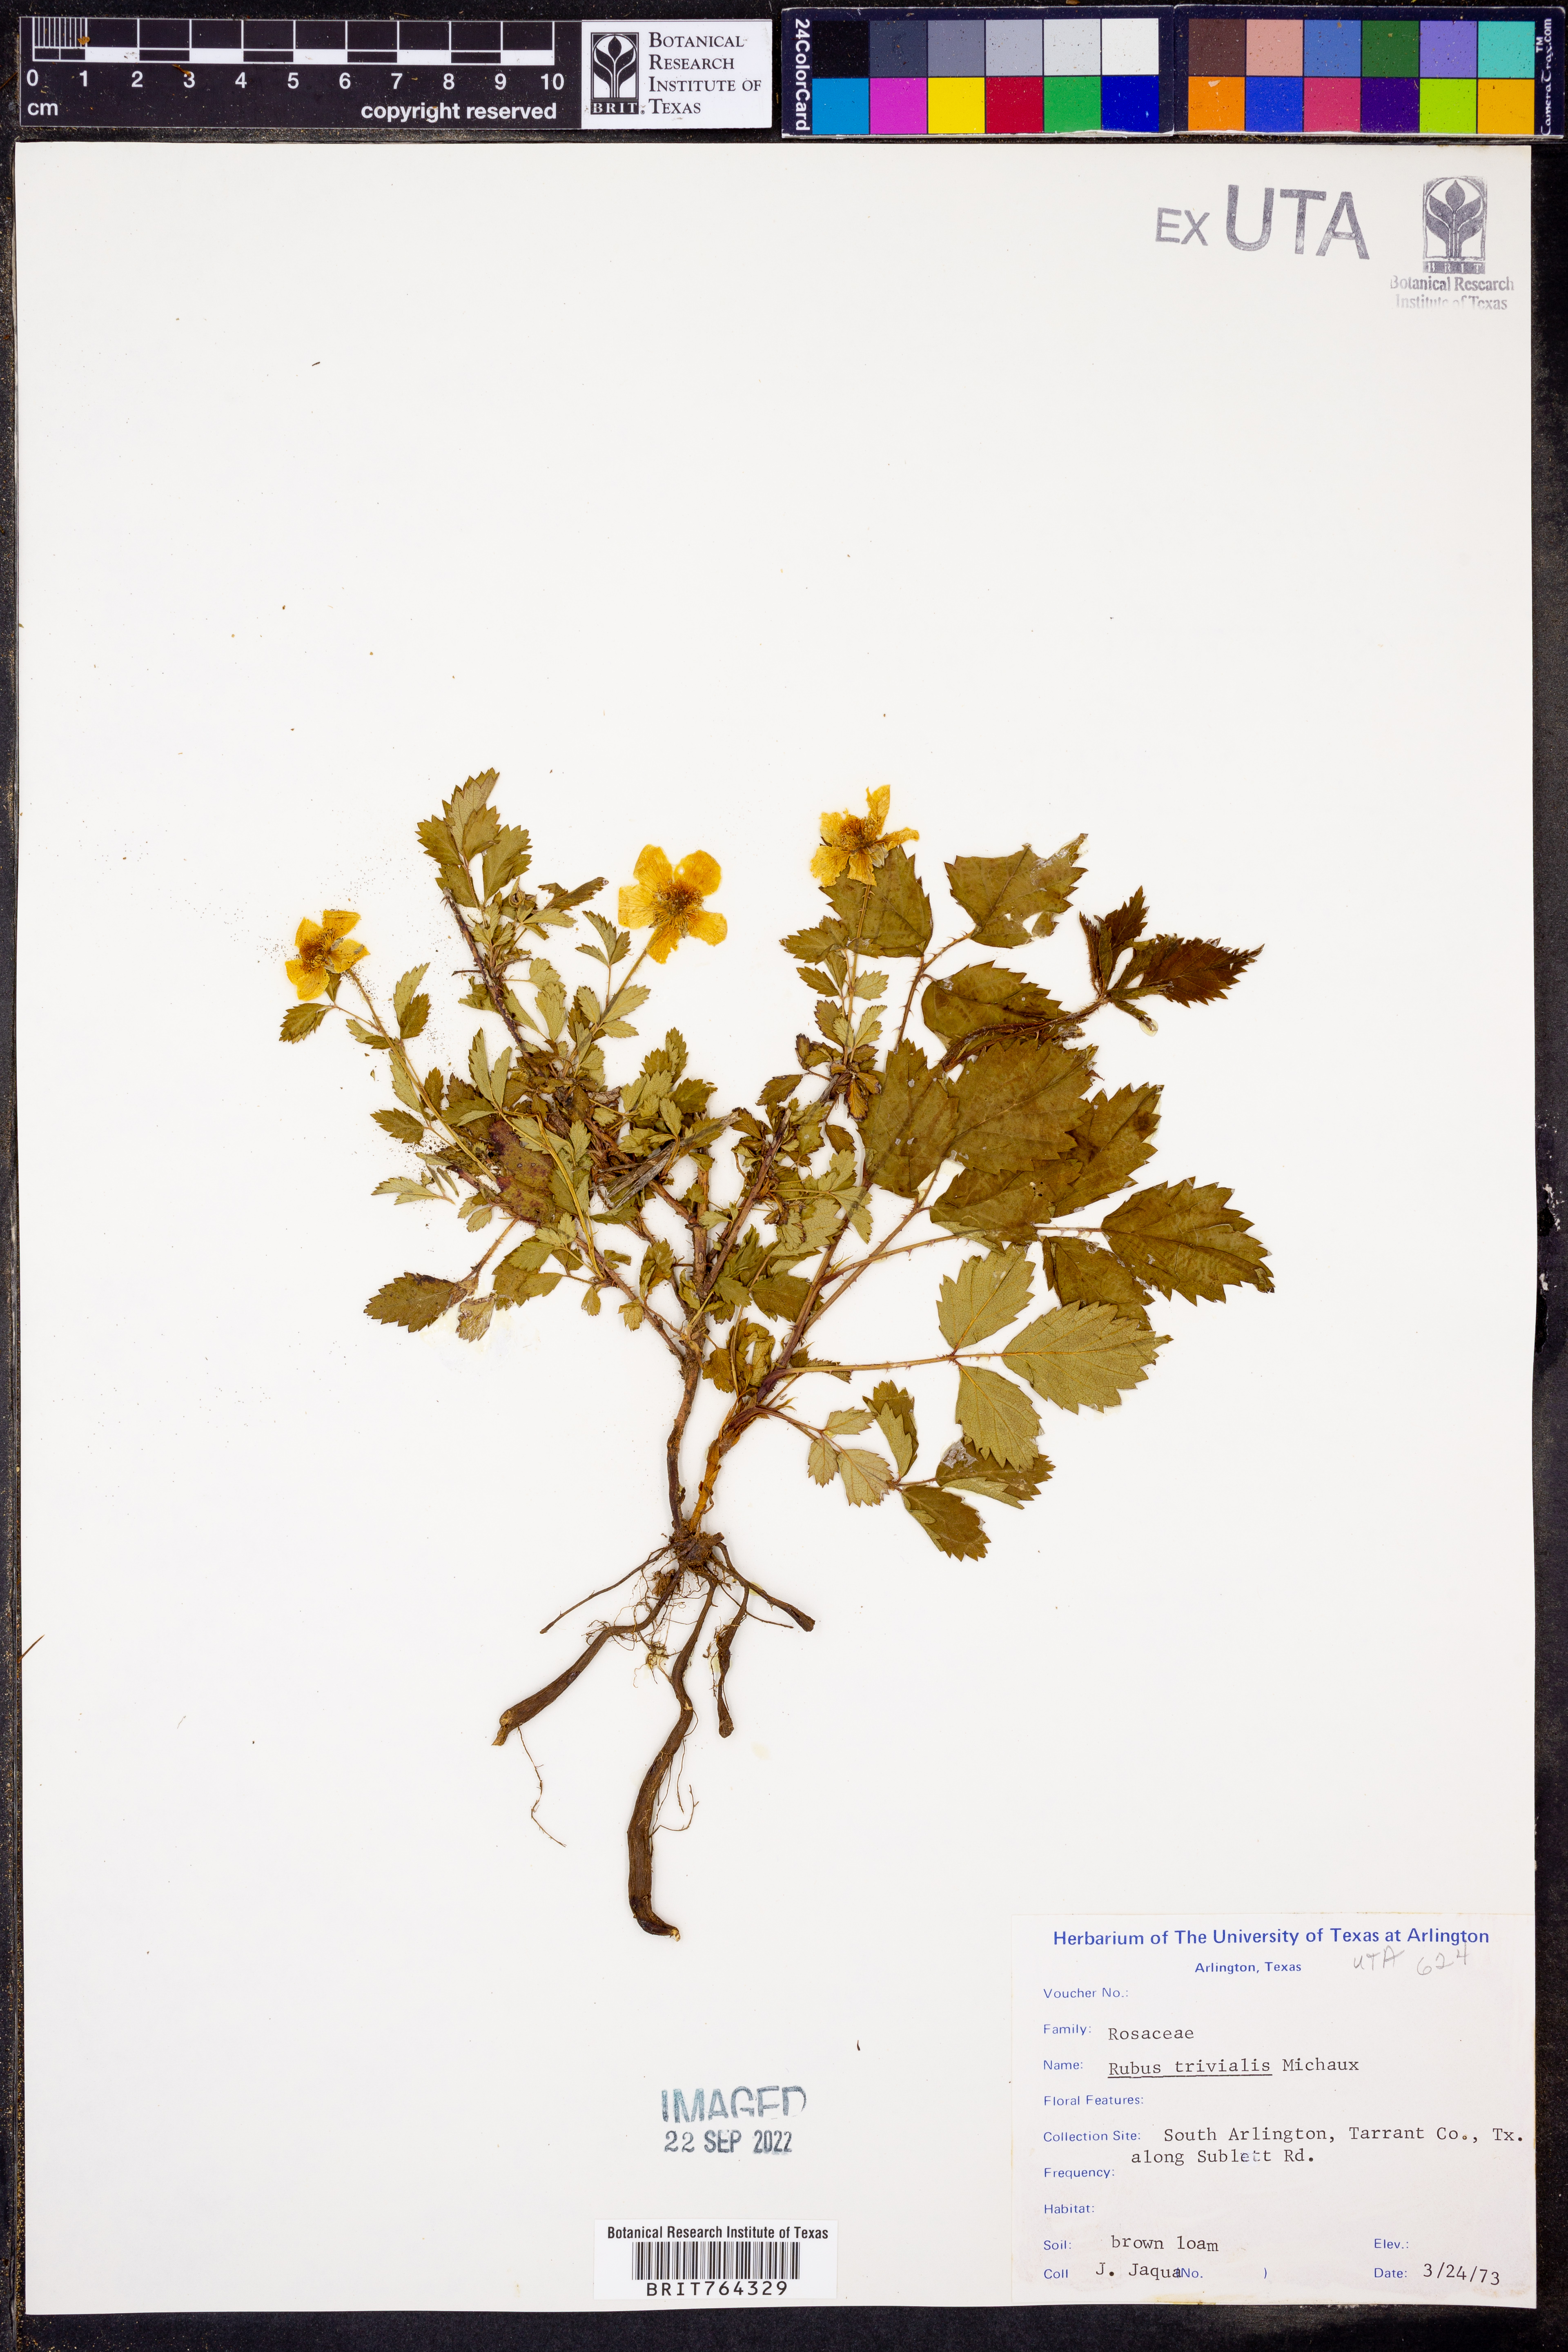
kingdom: Plantae
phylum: Tracheophyta
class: Magnoliopsida
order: Rosales
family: Rosaceae
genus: Rubus
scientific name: Rubus trivialis
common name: Southern dewberry
